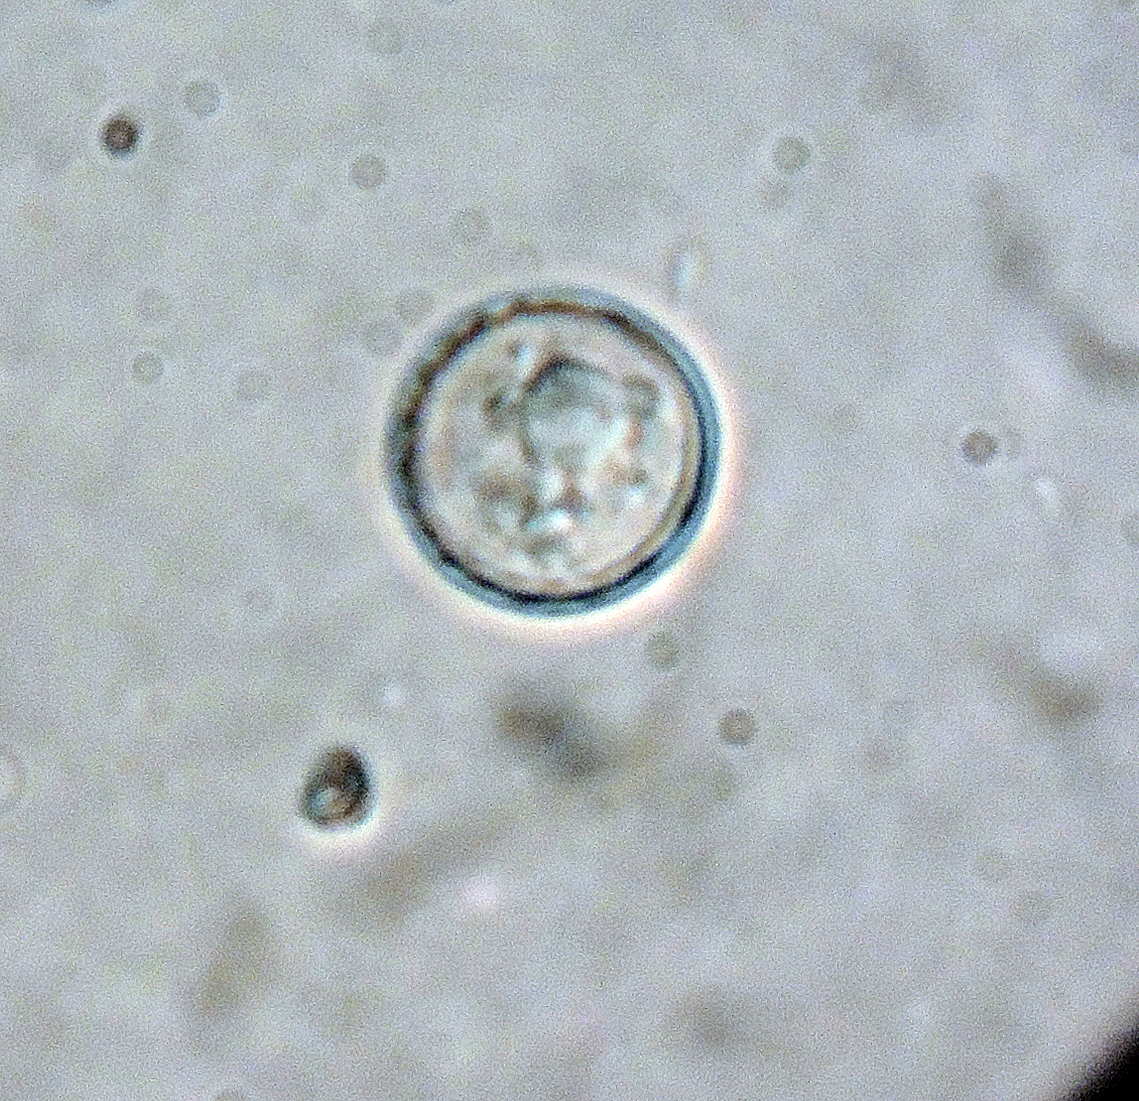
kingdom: Fungi
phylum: Ascomycota
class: Pezizomycetes
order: Pezizales
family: Pyronemataceae
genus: Plicaria
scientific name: Plicaria trachycarpa
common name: vortesporet bålbæger
